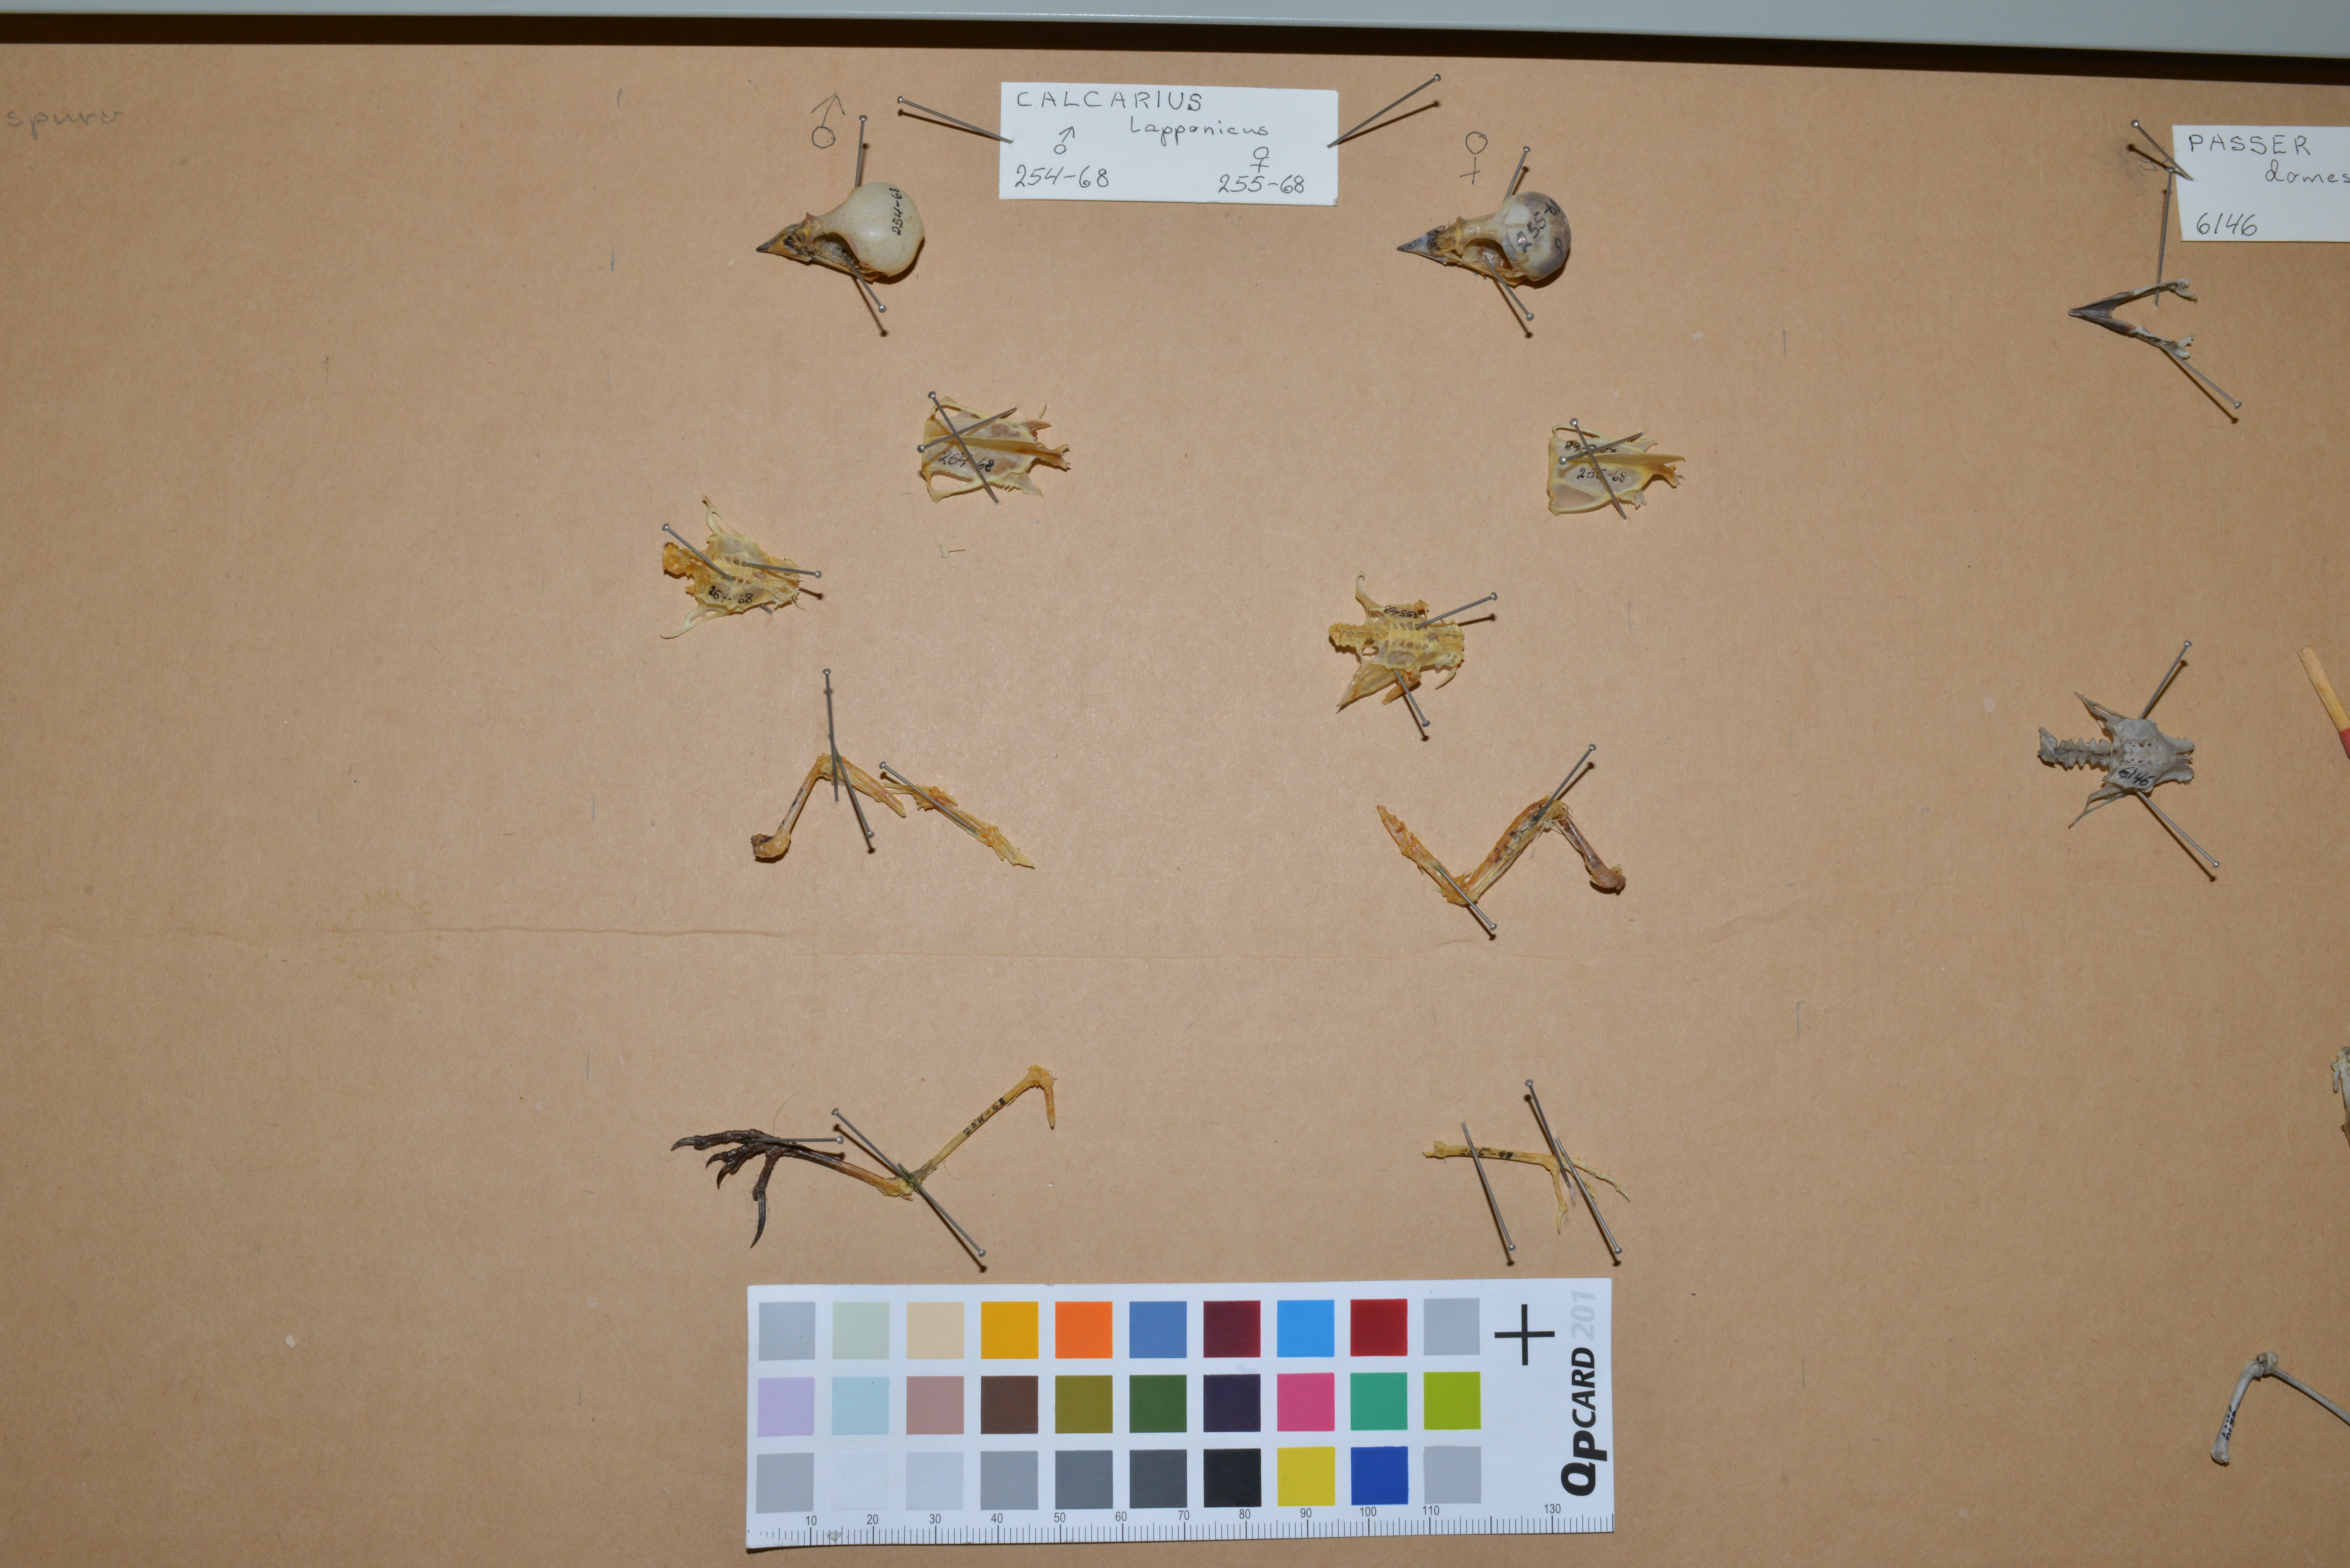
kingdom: Animalia
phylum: Chordata
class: Aves
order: Passeriformes
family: Calcariidae
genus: Calcarius
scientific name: Calcarius lapponicus
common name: Lapland longspur
